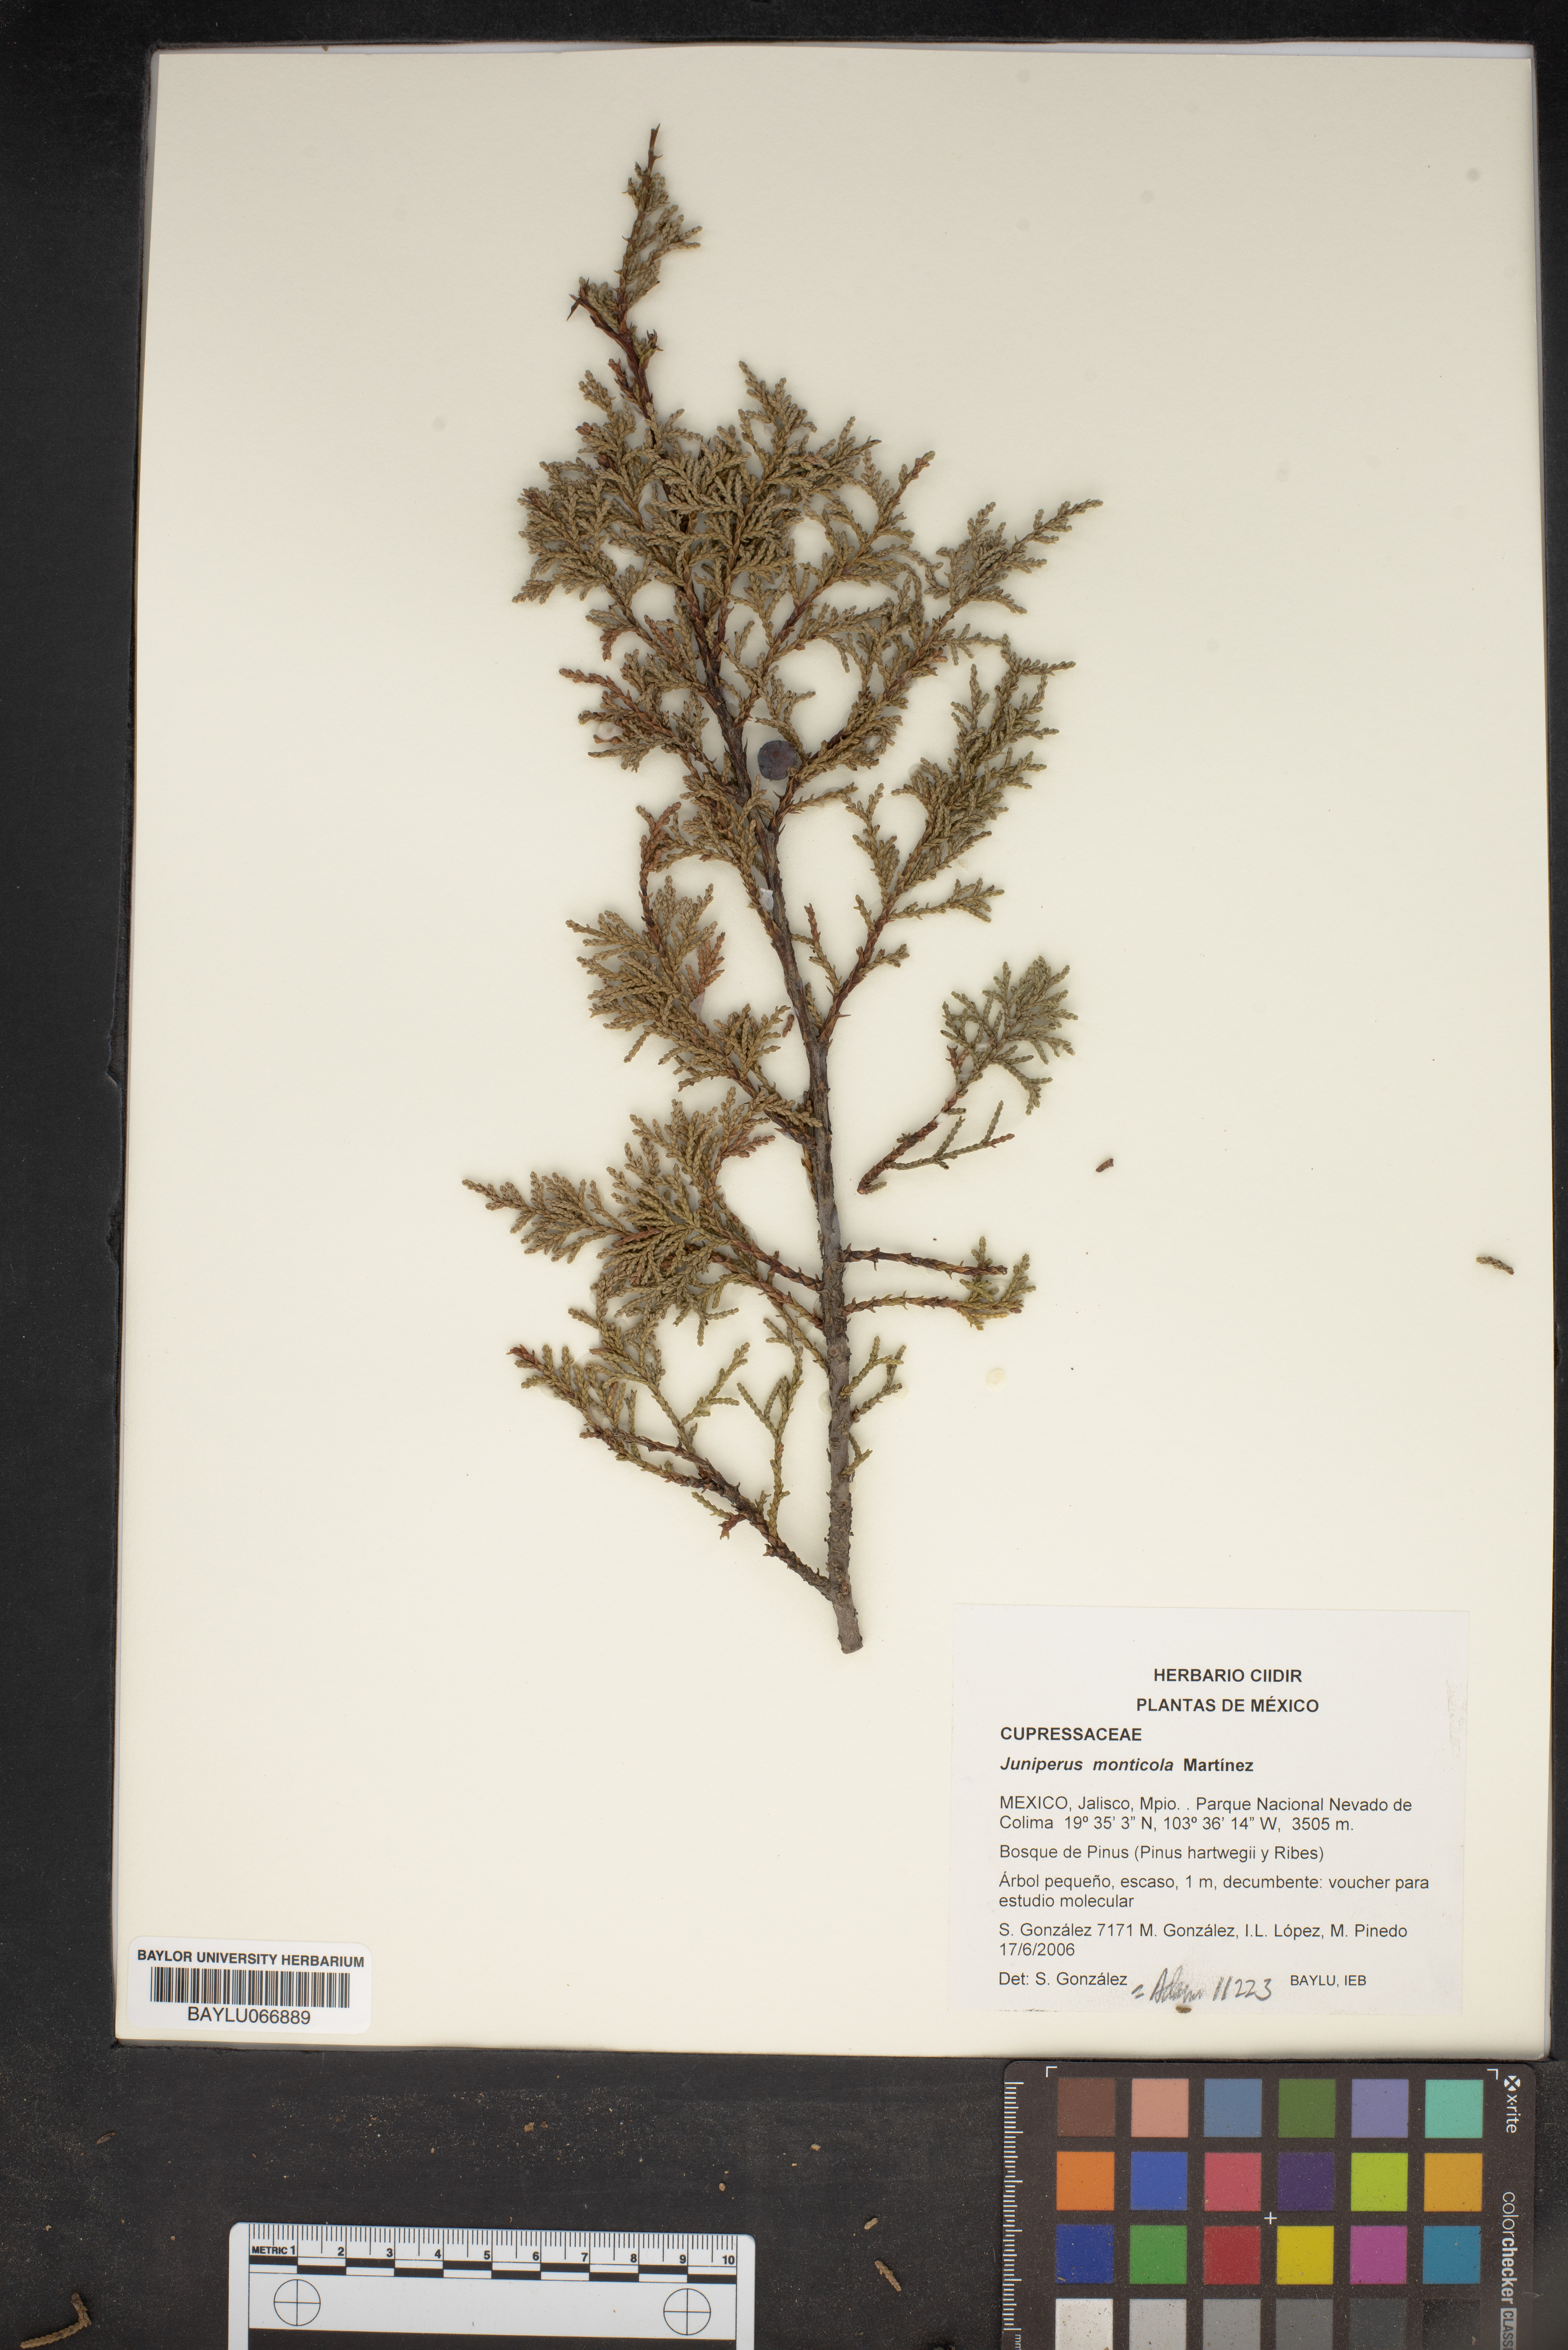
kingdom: Plantae
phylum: Tracheophyta
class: Pinopsida
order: Pinales
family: Cupressaceae
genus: Juniperus
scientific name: Juniperus monticola
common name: Mexican juniper
